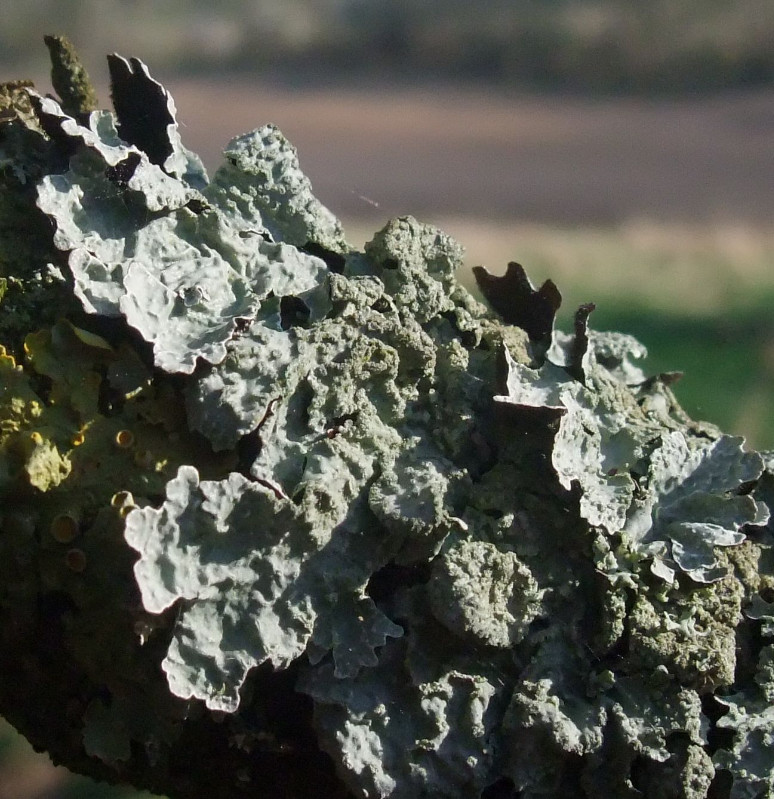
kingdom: Fungi
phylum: Ascomycota
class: Lecanoromycetes
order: Lecanorales
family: Parmeliaceae
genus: Parmelia
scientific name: Parmelia sulcata
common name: rynket skållav
